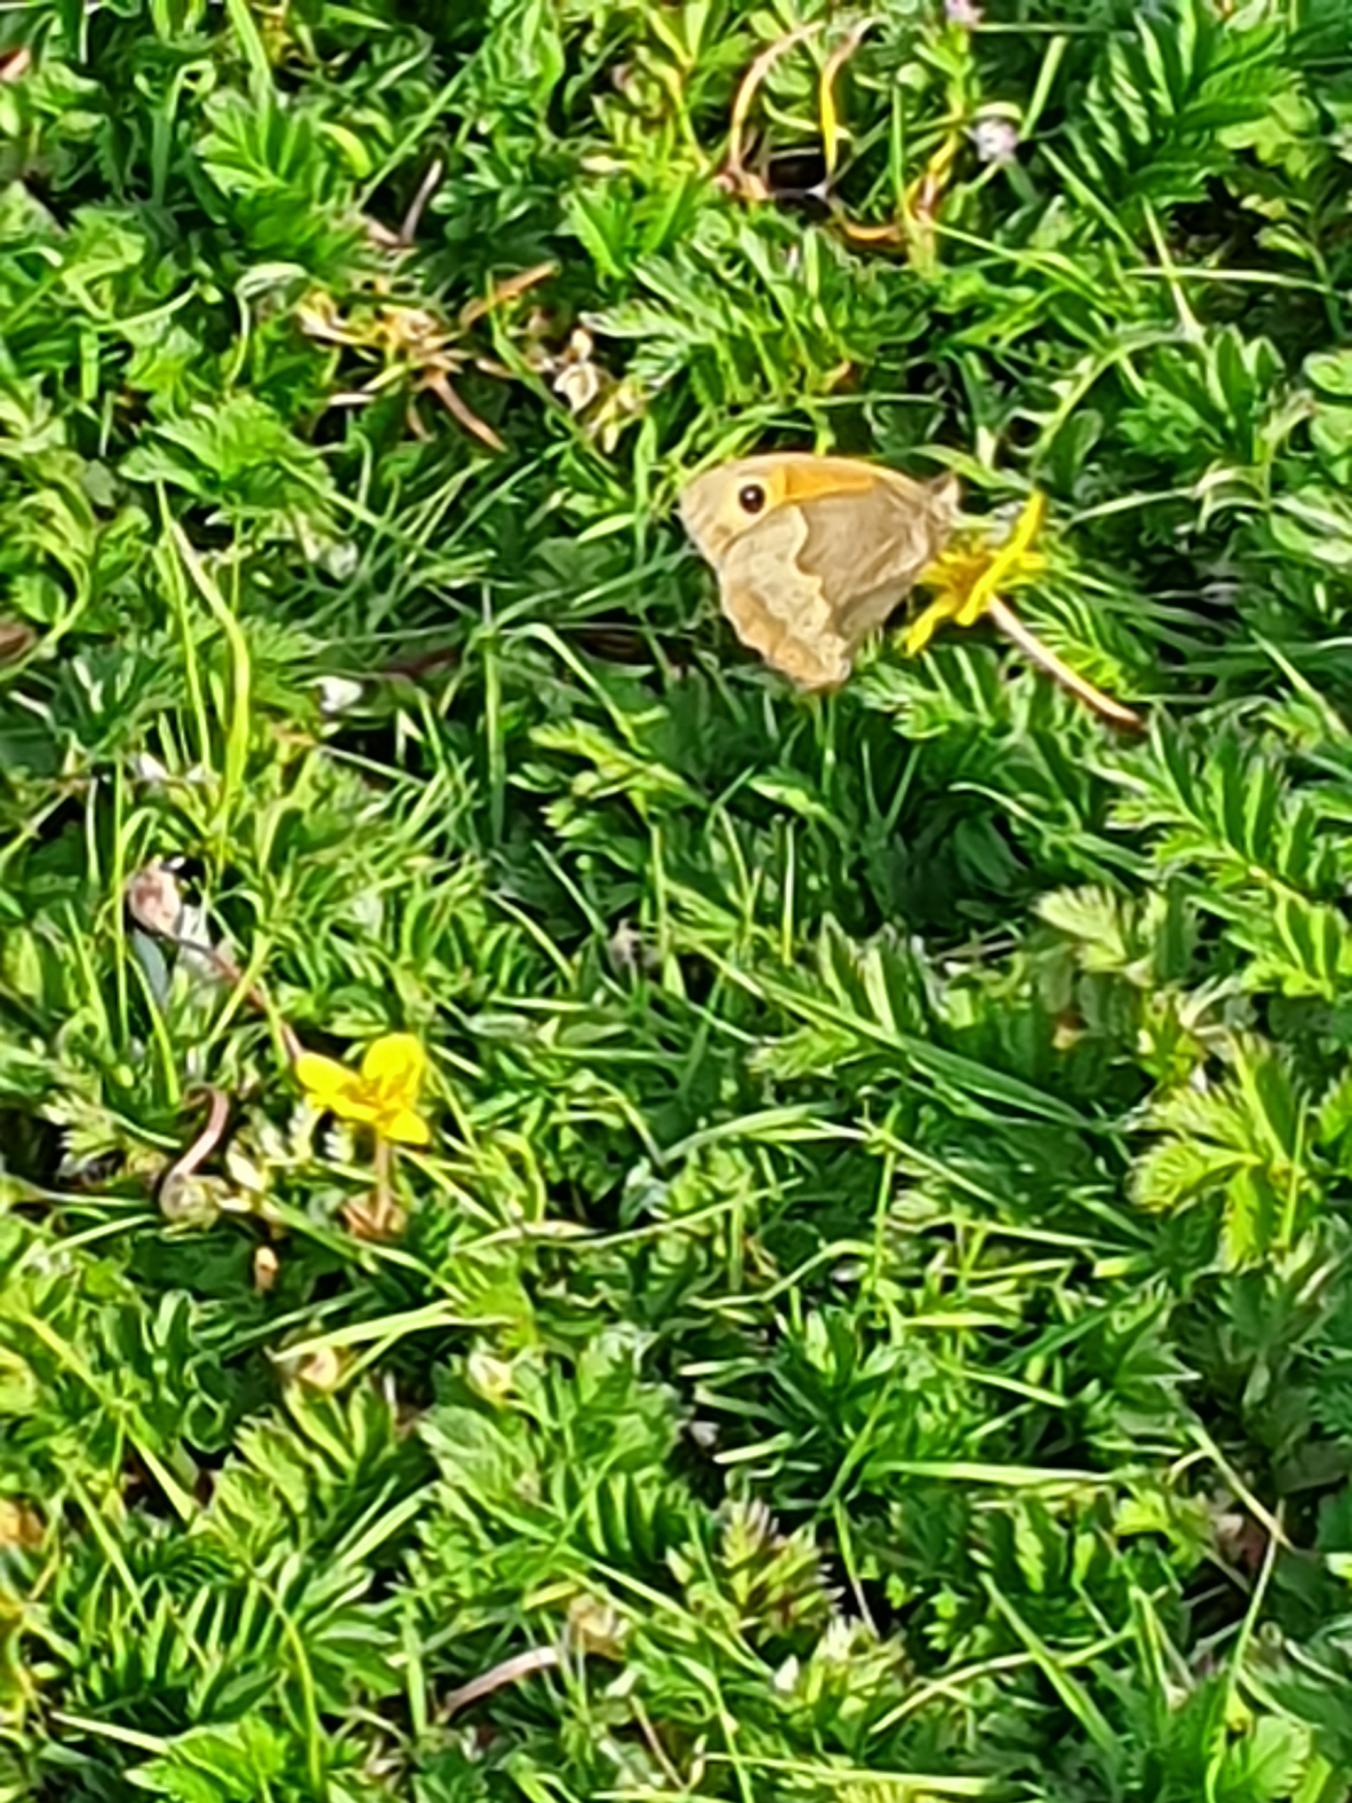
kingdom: Animalia
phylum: Arthropoda
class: Insecta
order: Lepidoptera
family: Nymphalidae
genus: Maniola
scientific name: Maniola jurtina
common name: Græsrandøje
